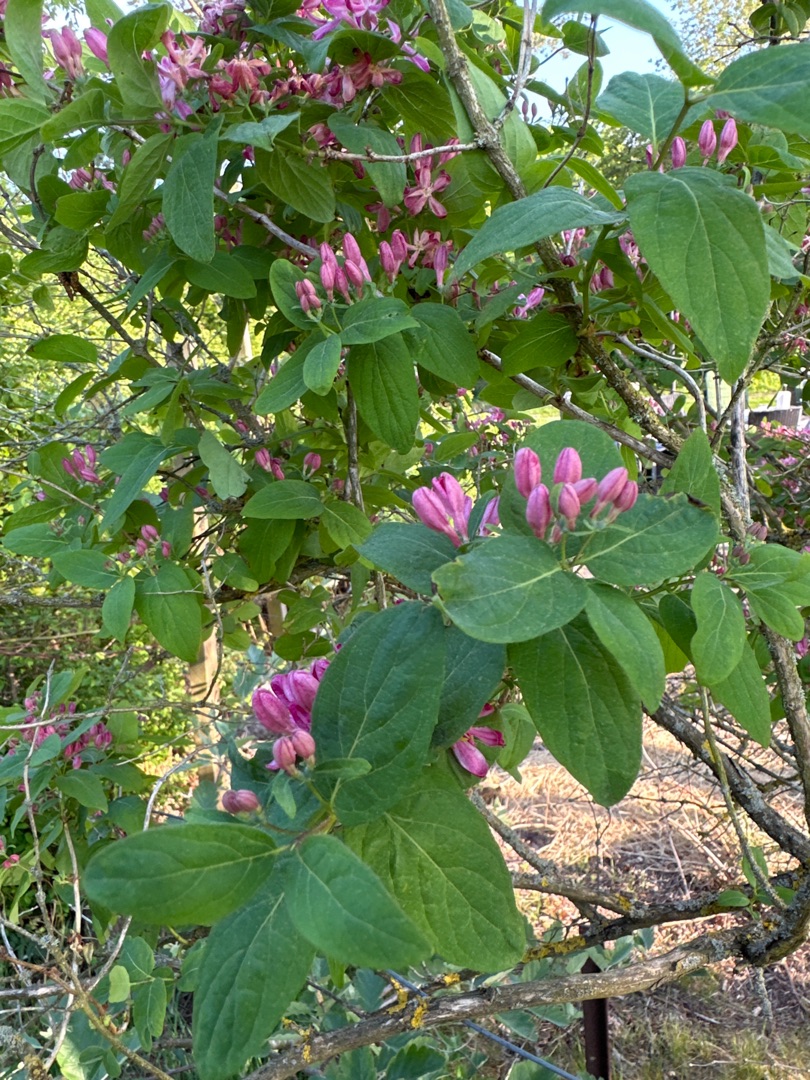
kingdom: Plantae
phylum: Tracheophyta
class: Magnoliopsida
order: Dipsacales
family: Caprifoliaceae
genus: Lonicera
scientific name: Lonicera tatarica
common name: Tatarisk gedeblad
